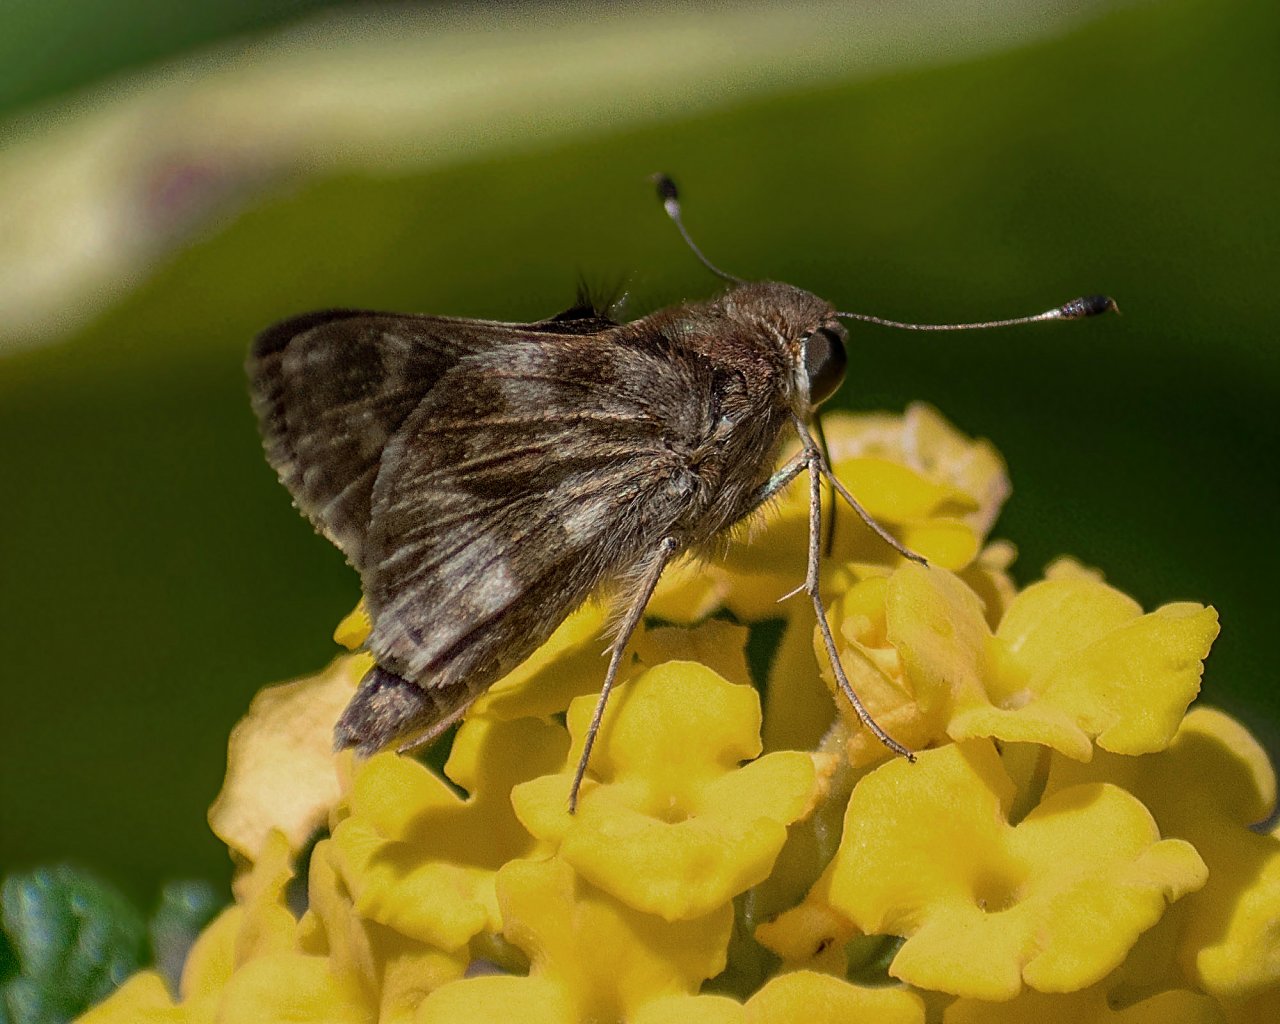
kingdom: Animalia
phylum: Arthropoda
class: Insecta
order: Lepidoptera
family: Hesperiidae
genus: Pompeius
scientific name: Pompeius pompeius
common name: Pompeius Skipper
